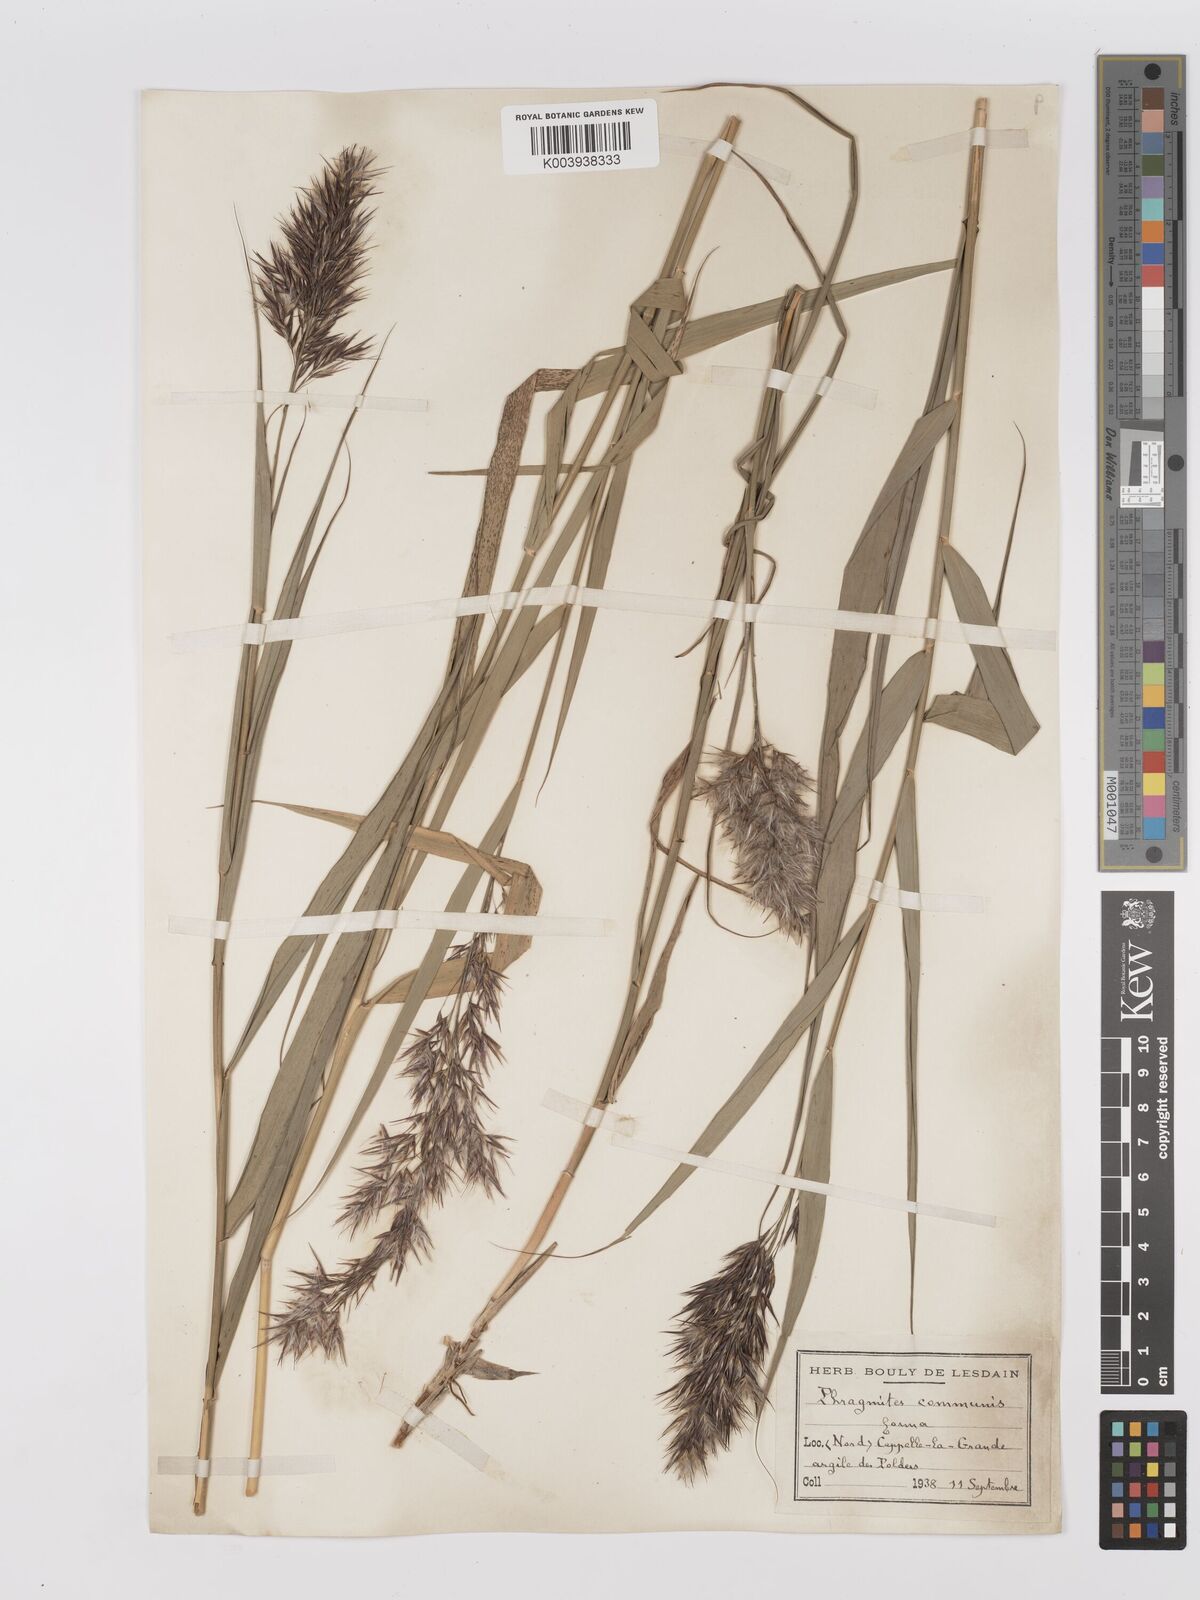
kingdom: Plantae
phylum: Tracheophyta
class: Liliopsida
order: Poales
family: Poaceae
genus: Phragmites
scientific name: Phragmites australis
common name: Common reed
